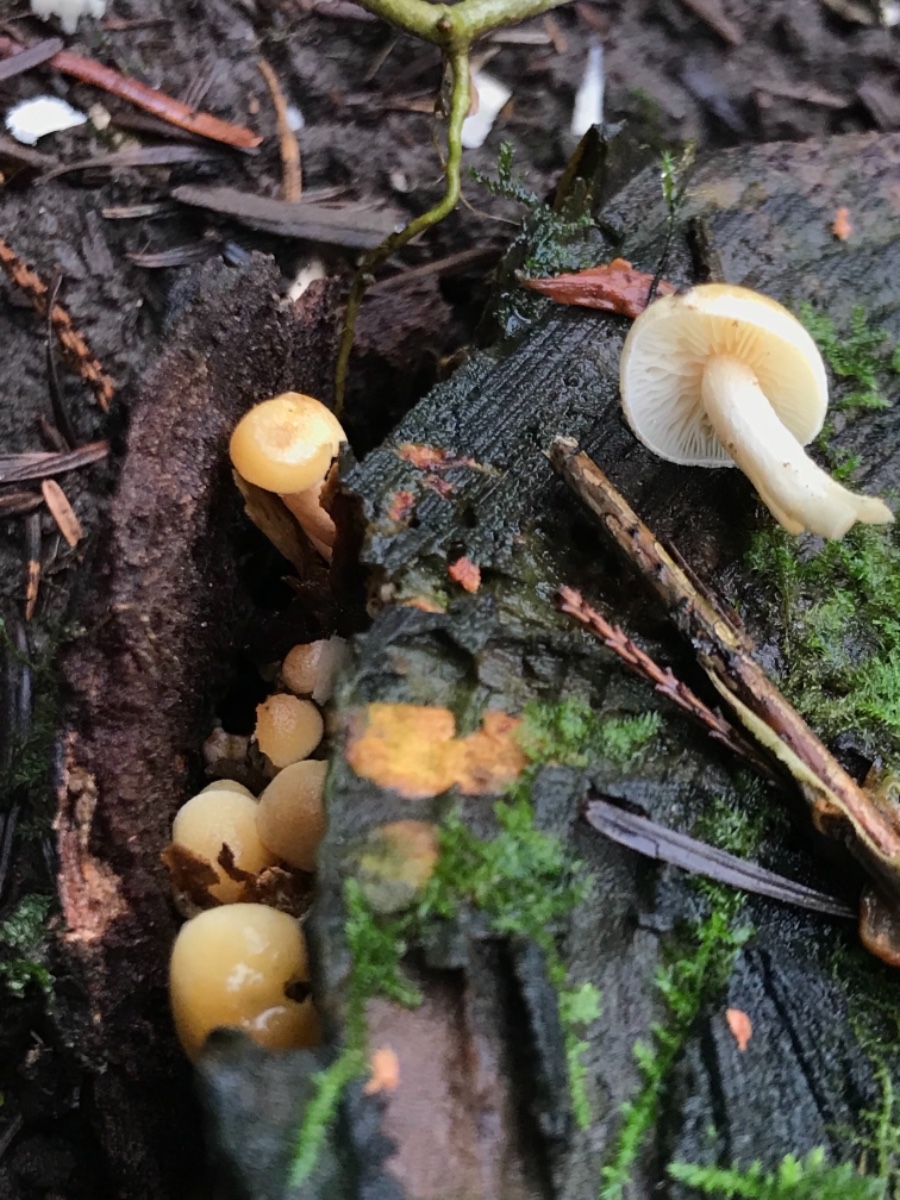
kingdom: Fungi
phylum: Basidiomycota
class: Agaricomycetes
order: Agaricales
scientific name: Agaricales
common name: champignonordenen
